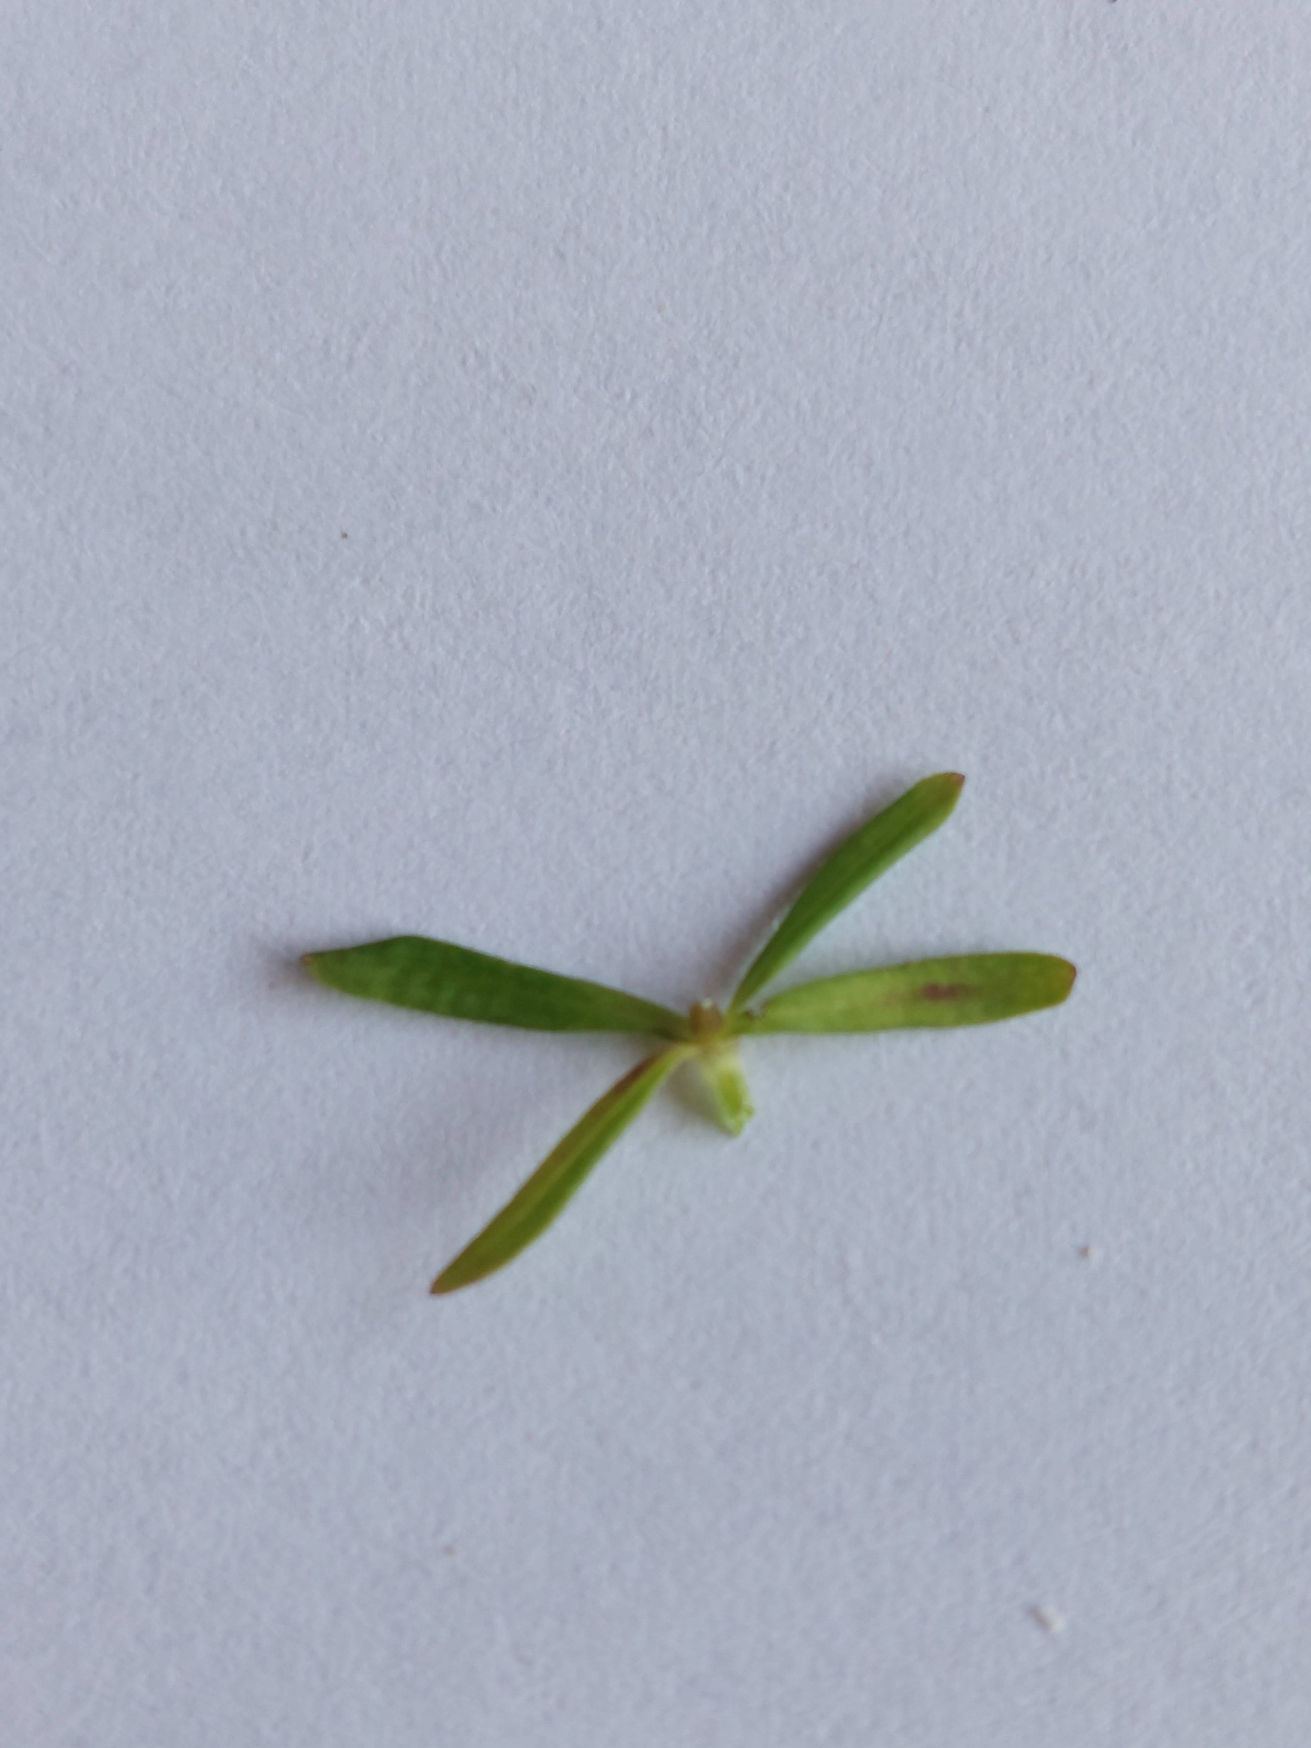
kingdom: Plantae
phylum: Tracheophyta
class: Magnoliopsida
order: Gentianales
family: Rubiaceae
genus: Galium
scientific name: Galium palustre
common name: Kær-snerre
